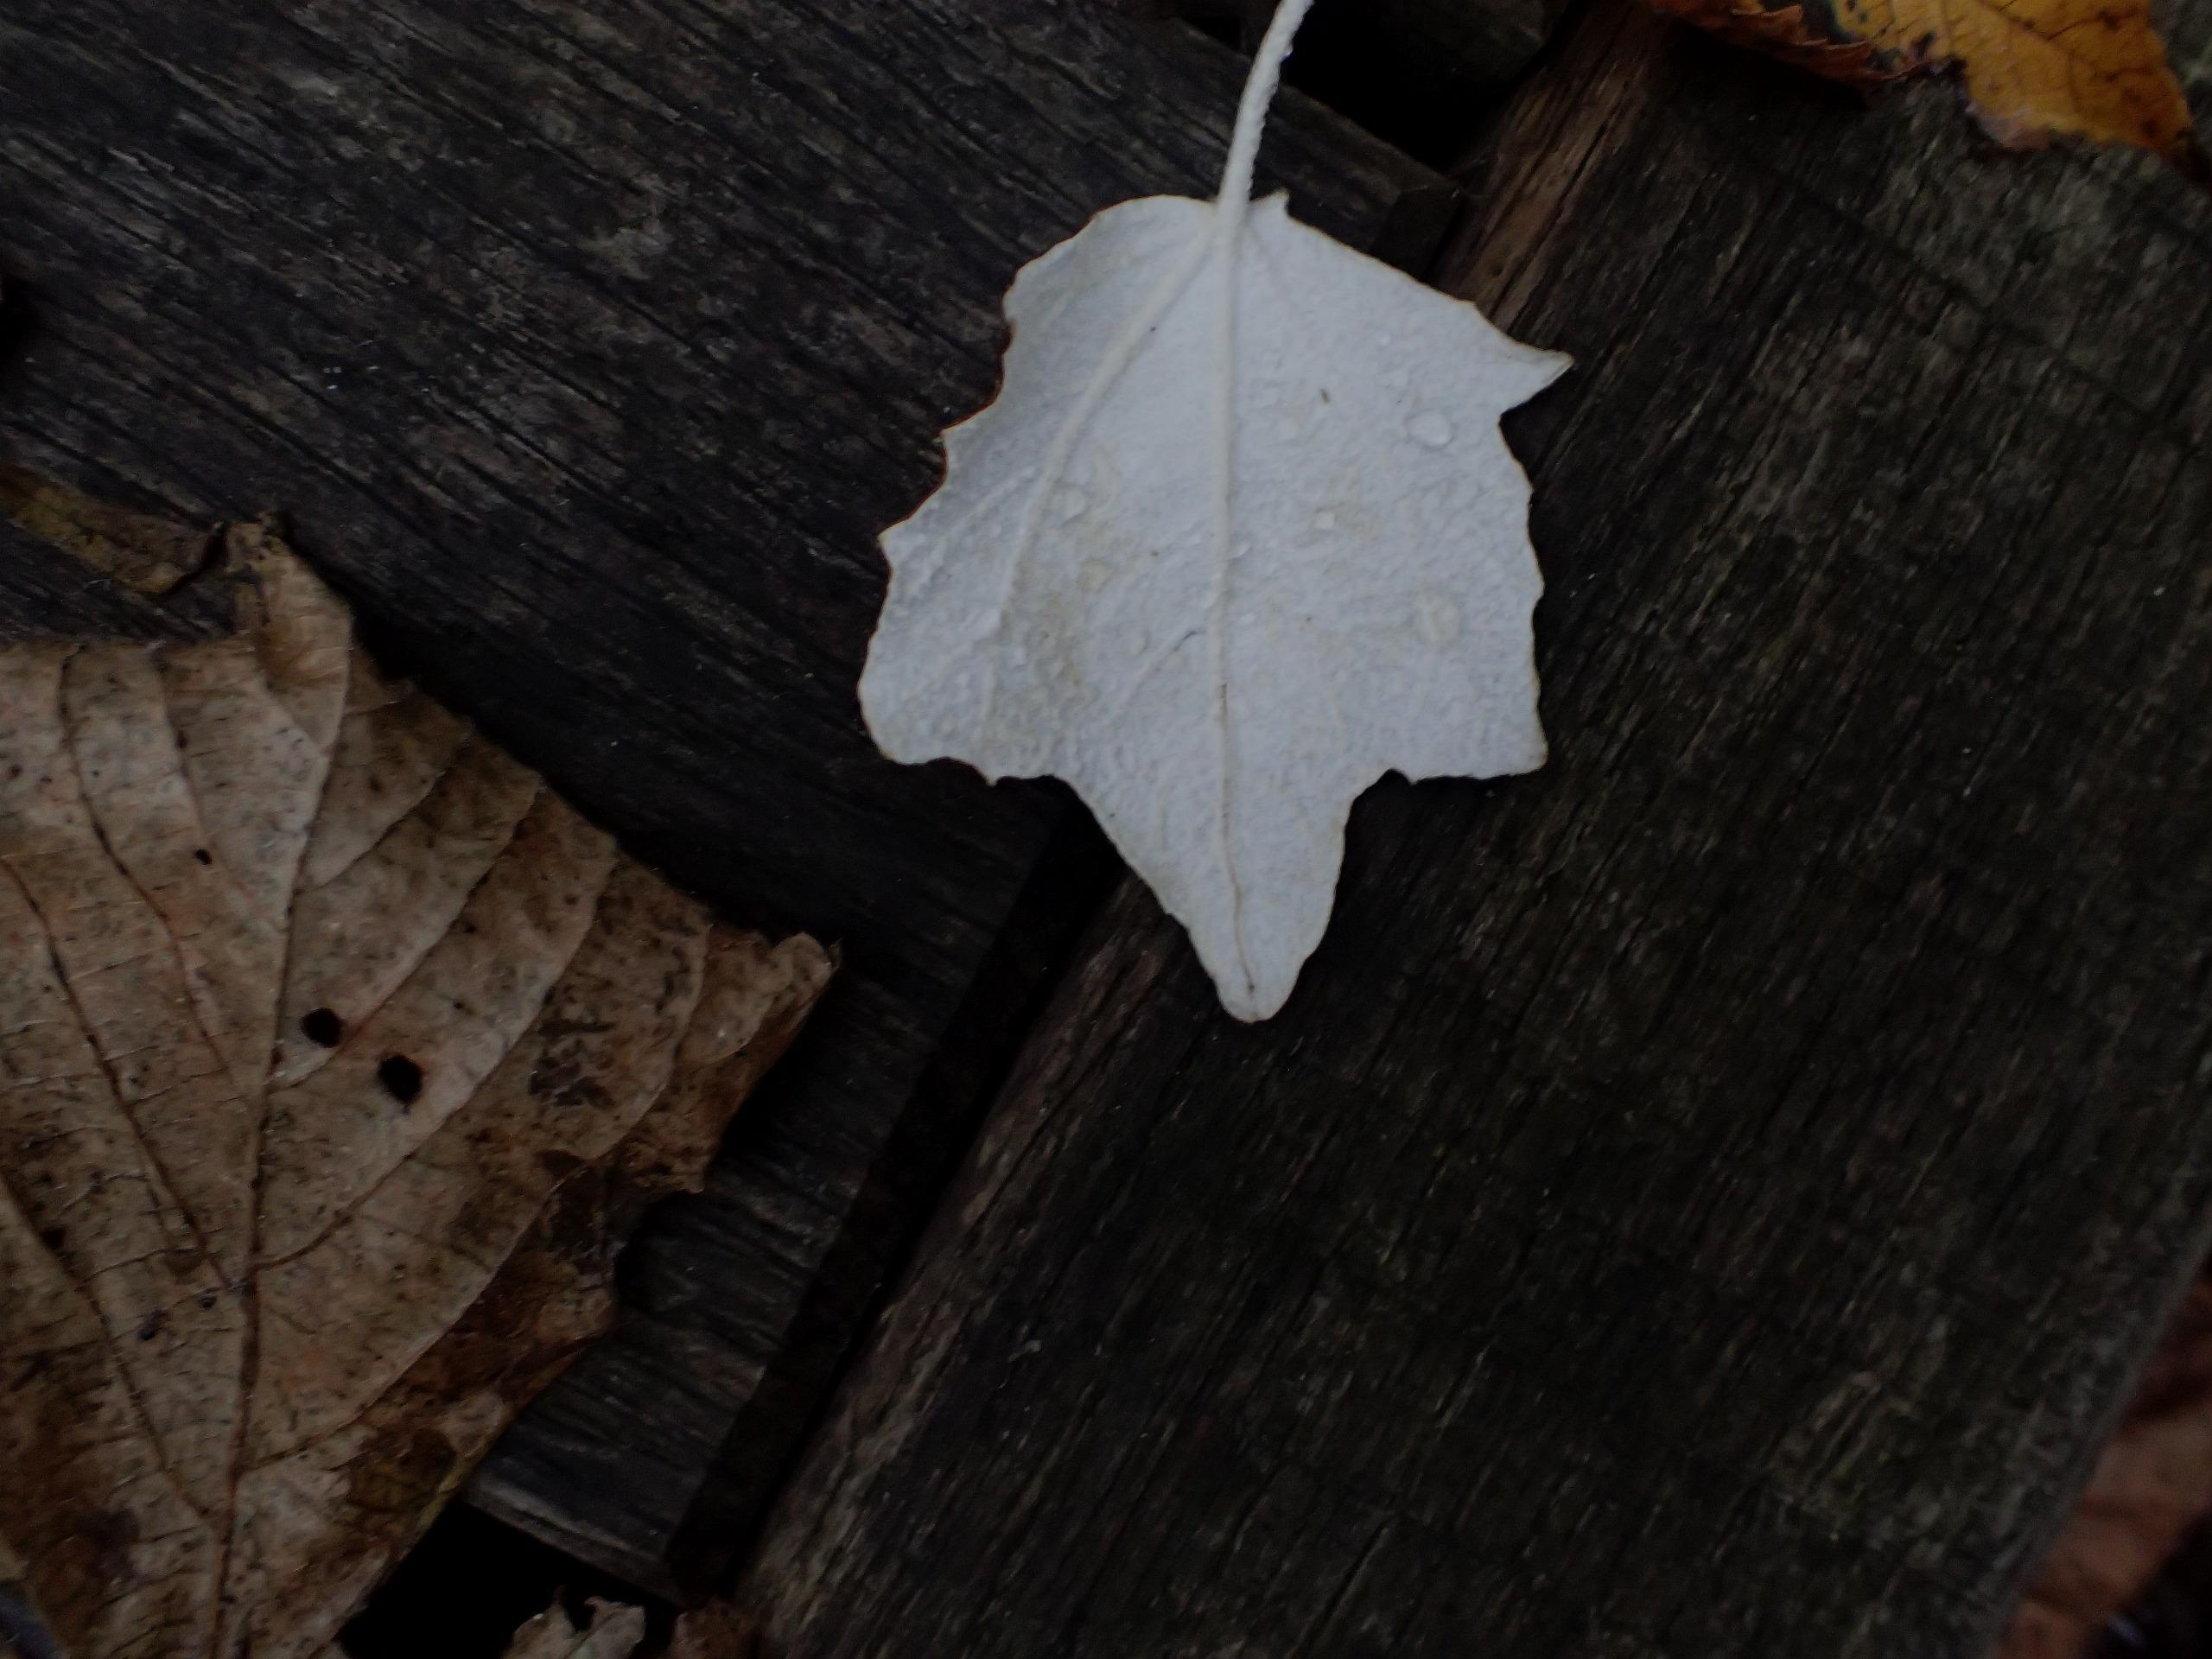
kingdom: Plantae
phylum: Tracheophyta
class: Magnoliopsida
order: Malpighiales
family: Salicaceae
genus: Populus
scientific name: Populus alba
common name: Sølv-poppel
